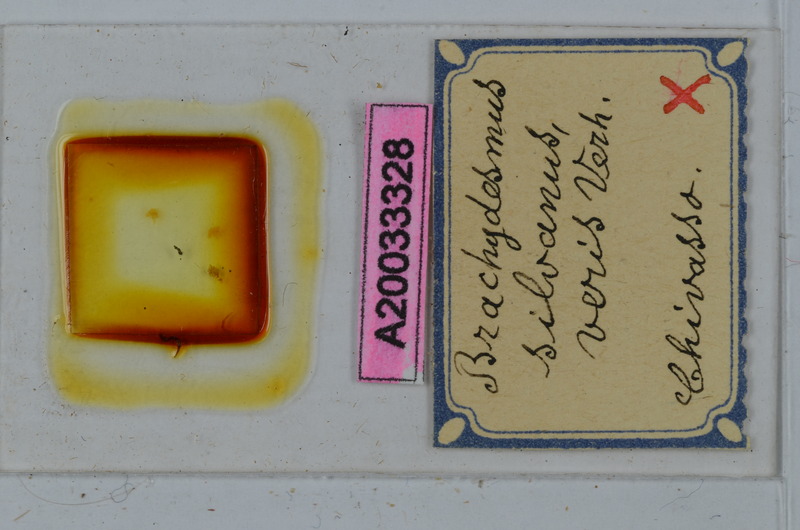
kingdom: Animalia
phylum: Arthropoda
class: Diplopoda
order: Polydesmida
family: Polydesmidae
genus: Brachydesmus
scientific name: Brachydesmus silvanus
